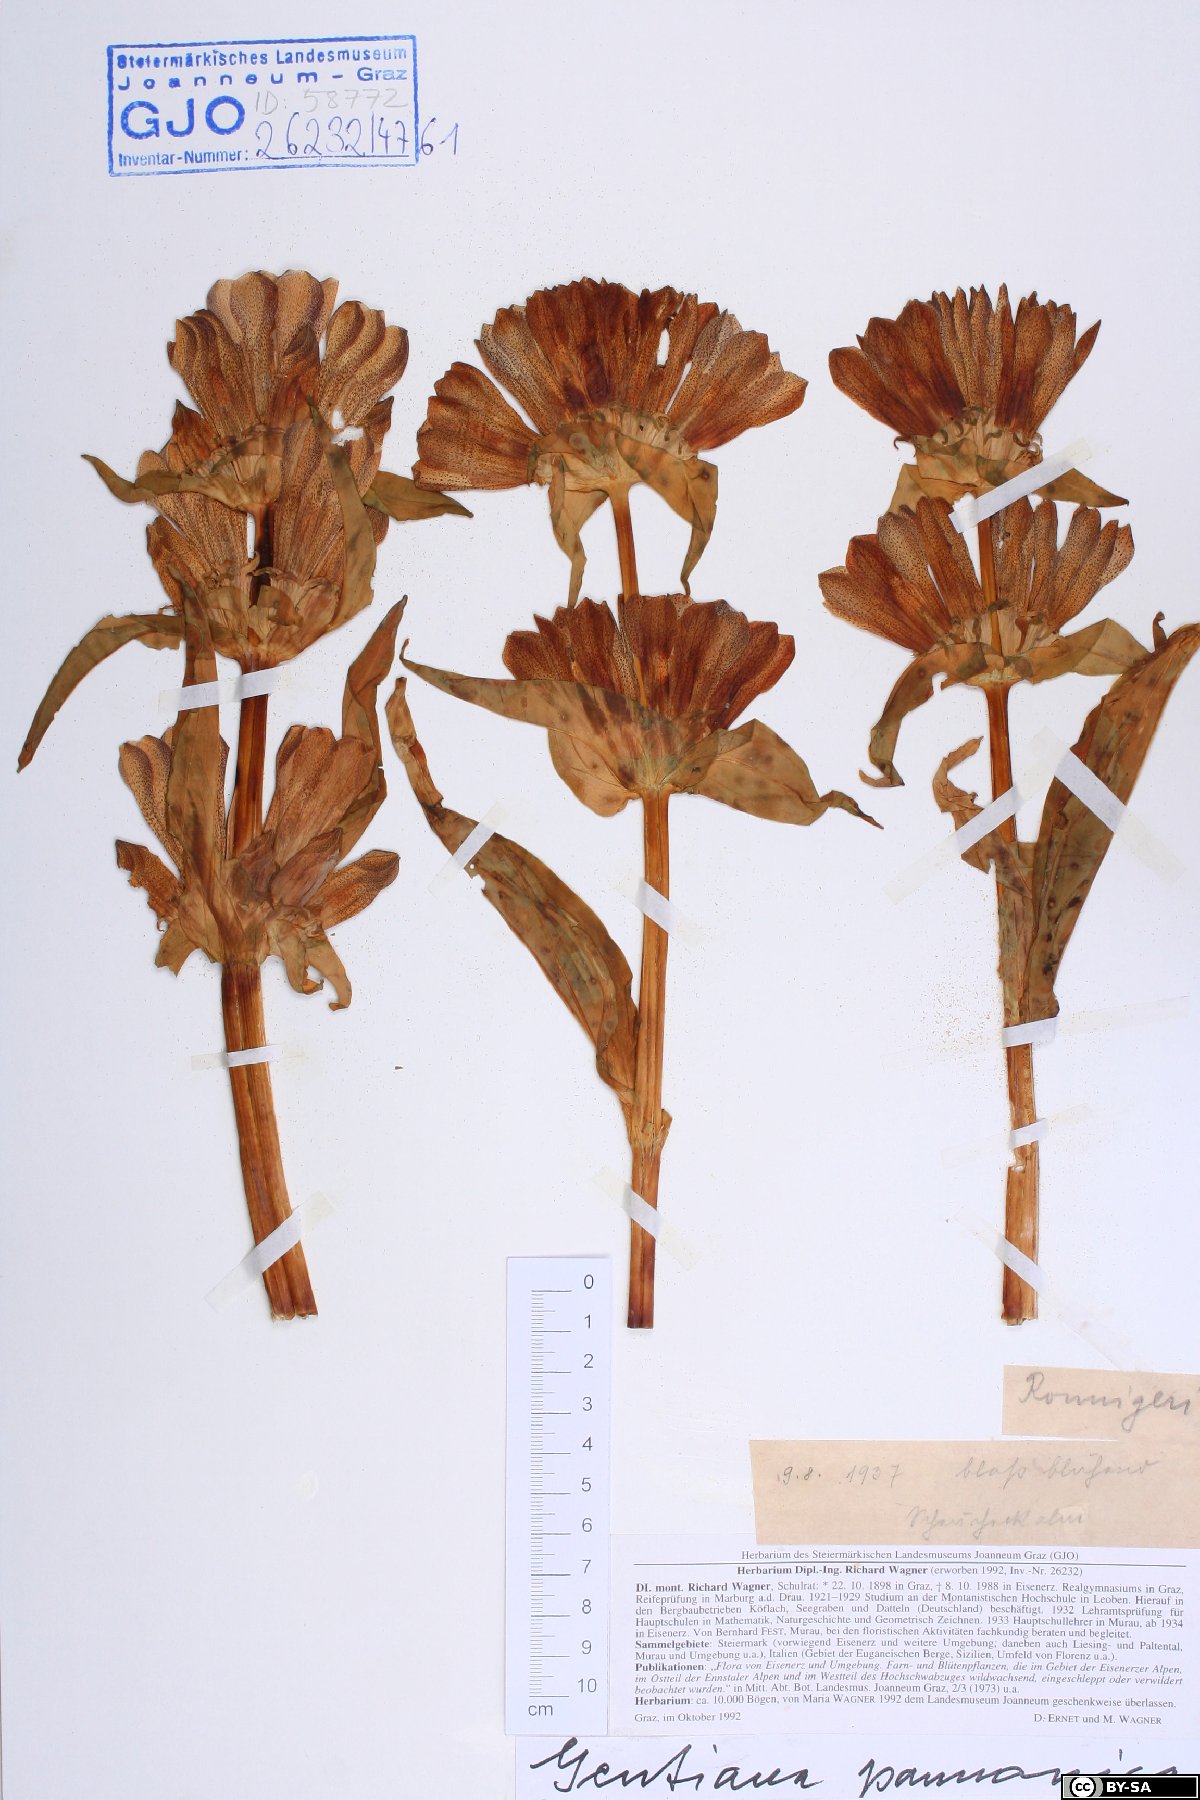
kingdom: Plantae
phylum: Tracheophyta
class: Magnoliopsida
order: Gentianales
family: Gentianaceae
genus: Gentiana
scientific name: Gentiana pannonica
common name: Hungarian gentian
